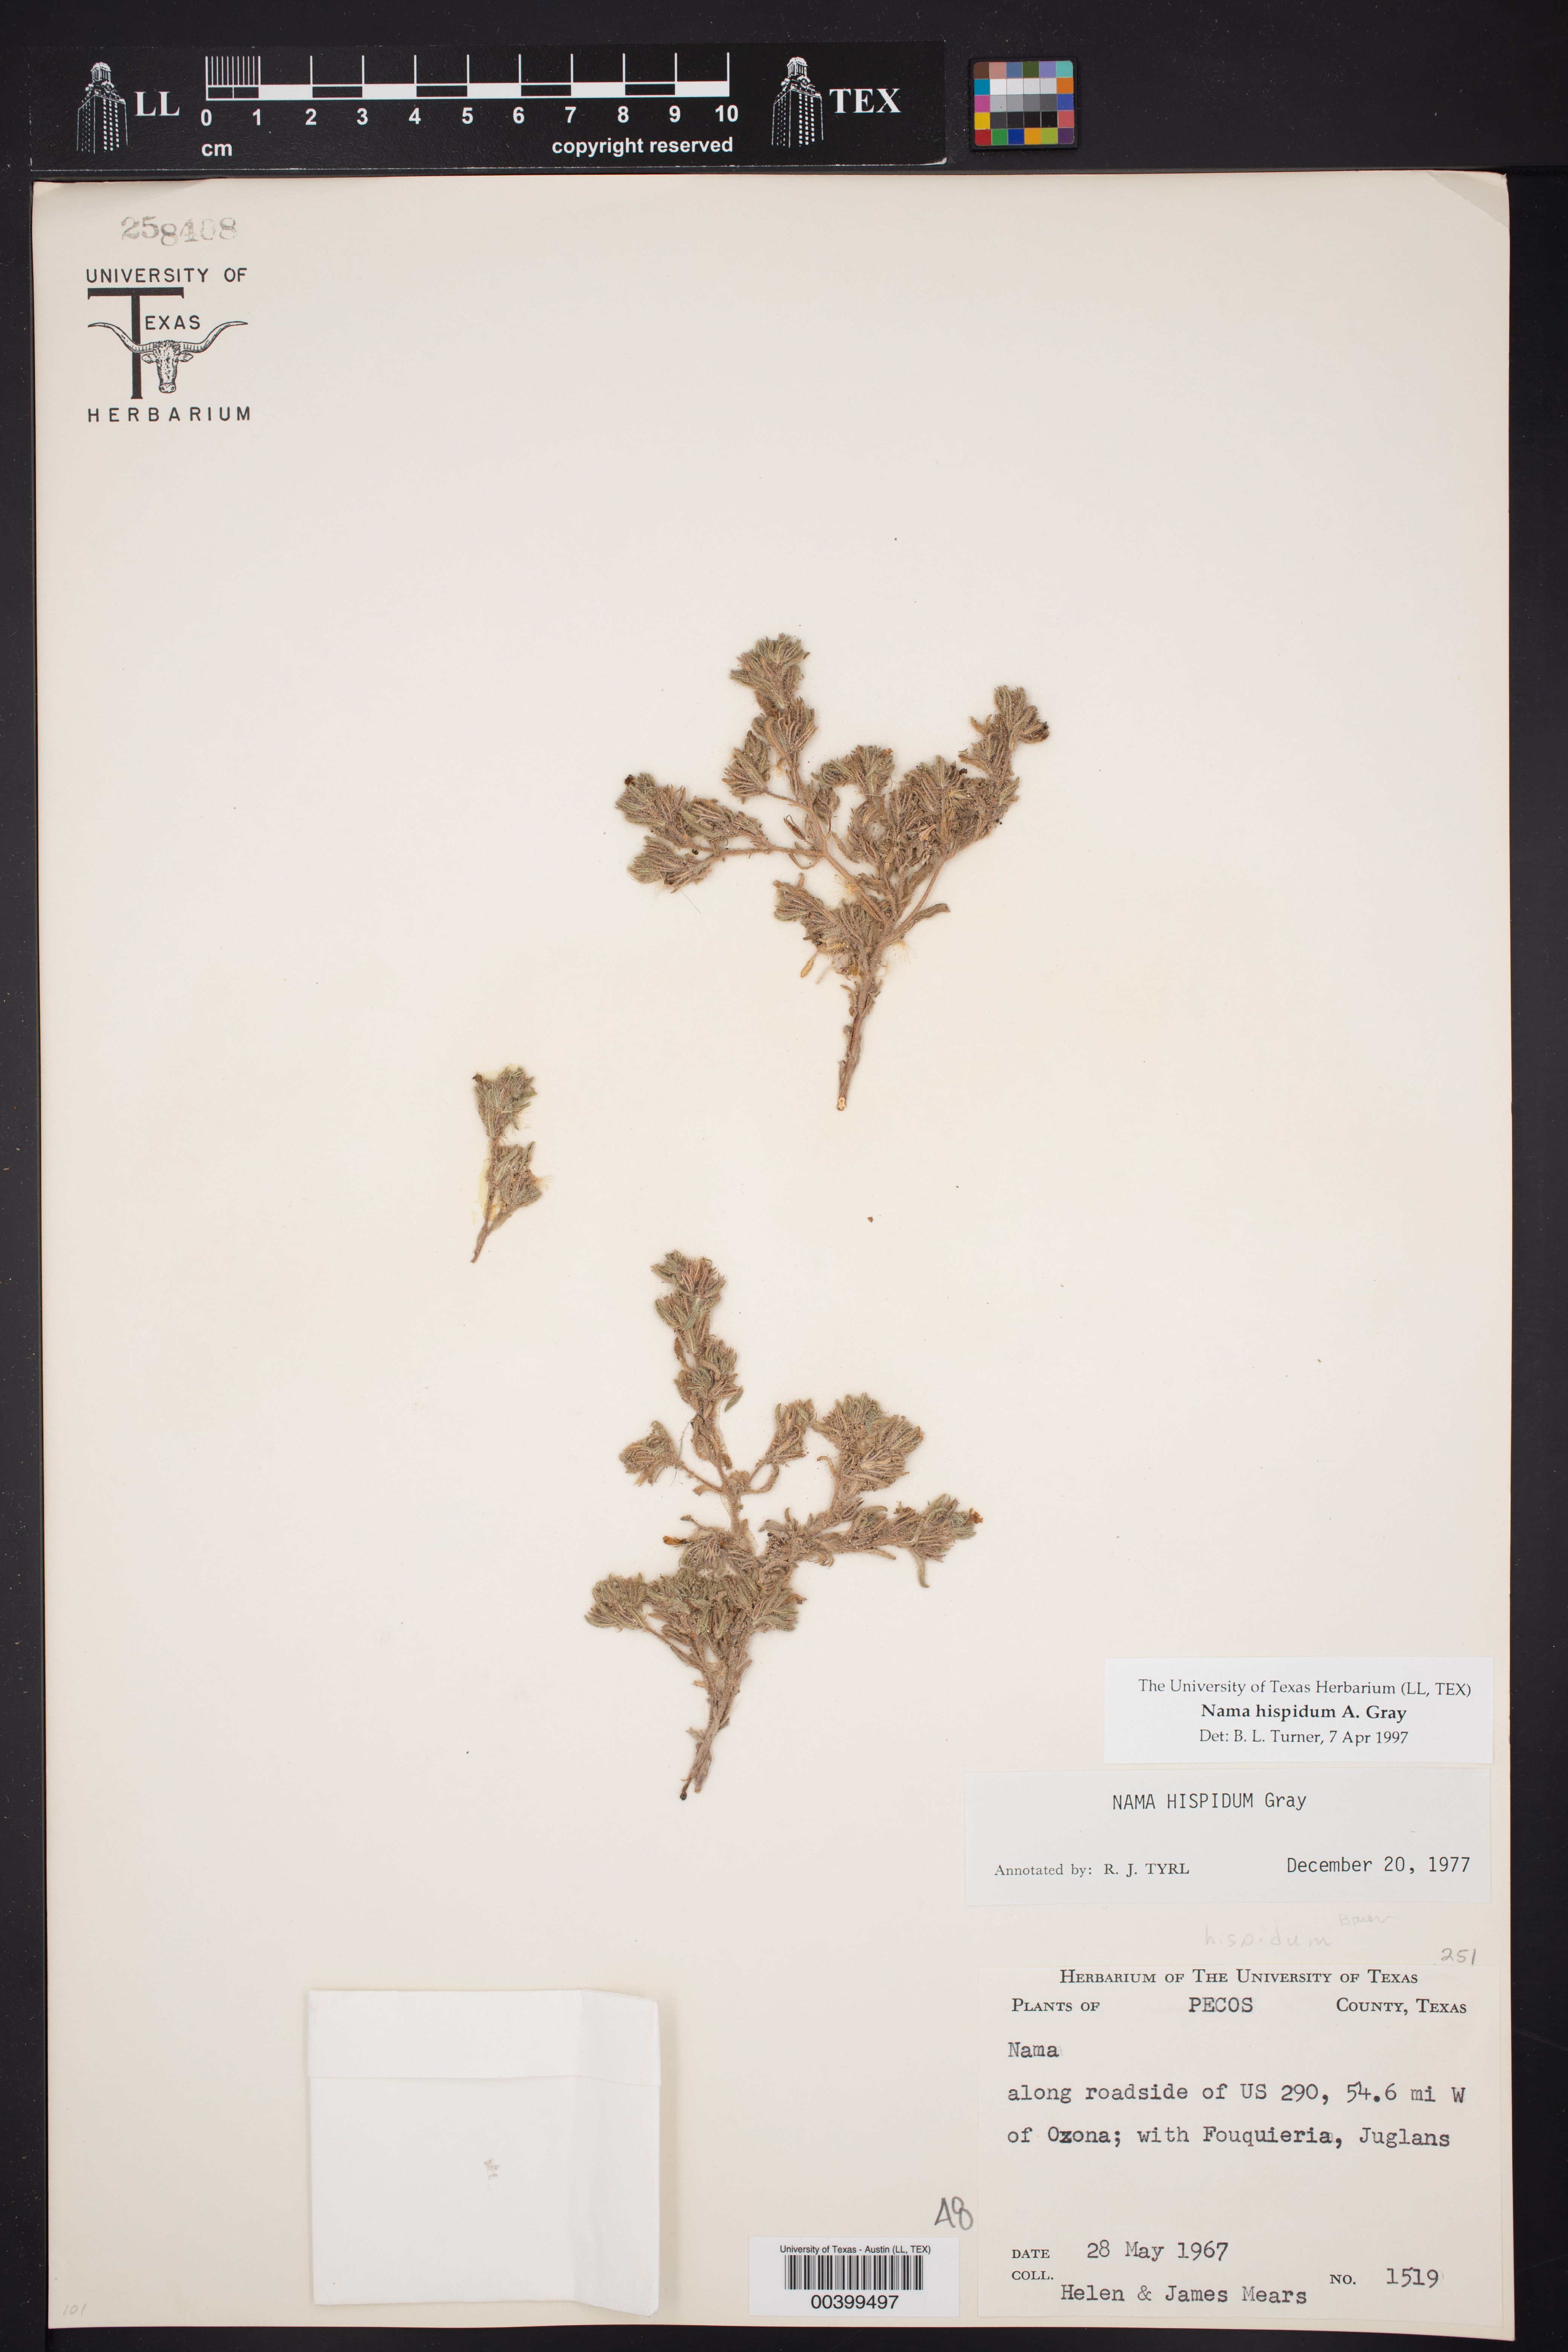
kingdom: Plantae
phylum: Tracheophyta
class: Magnoliopsida
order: Boraginales
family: Namaceae
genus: Nama
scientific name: Nama hispida
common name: Bristly nama
